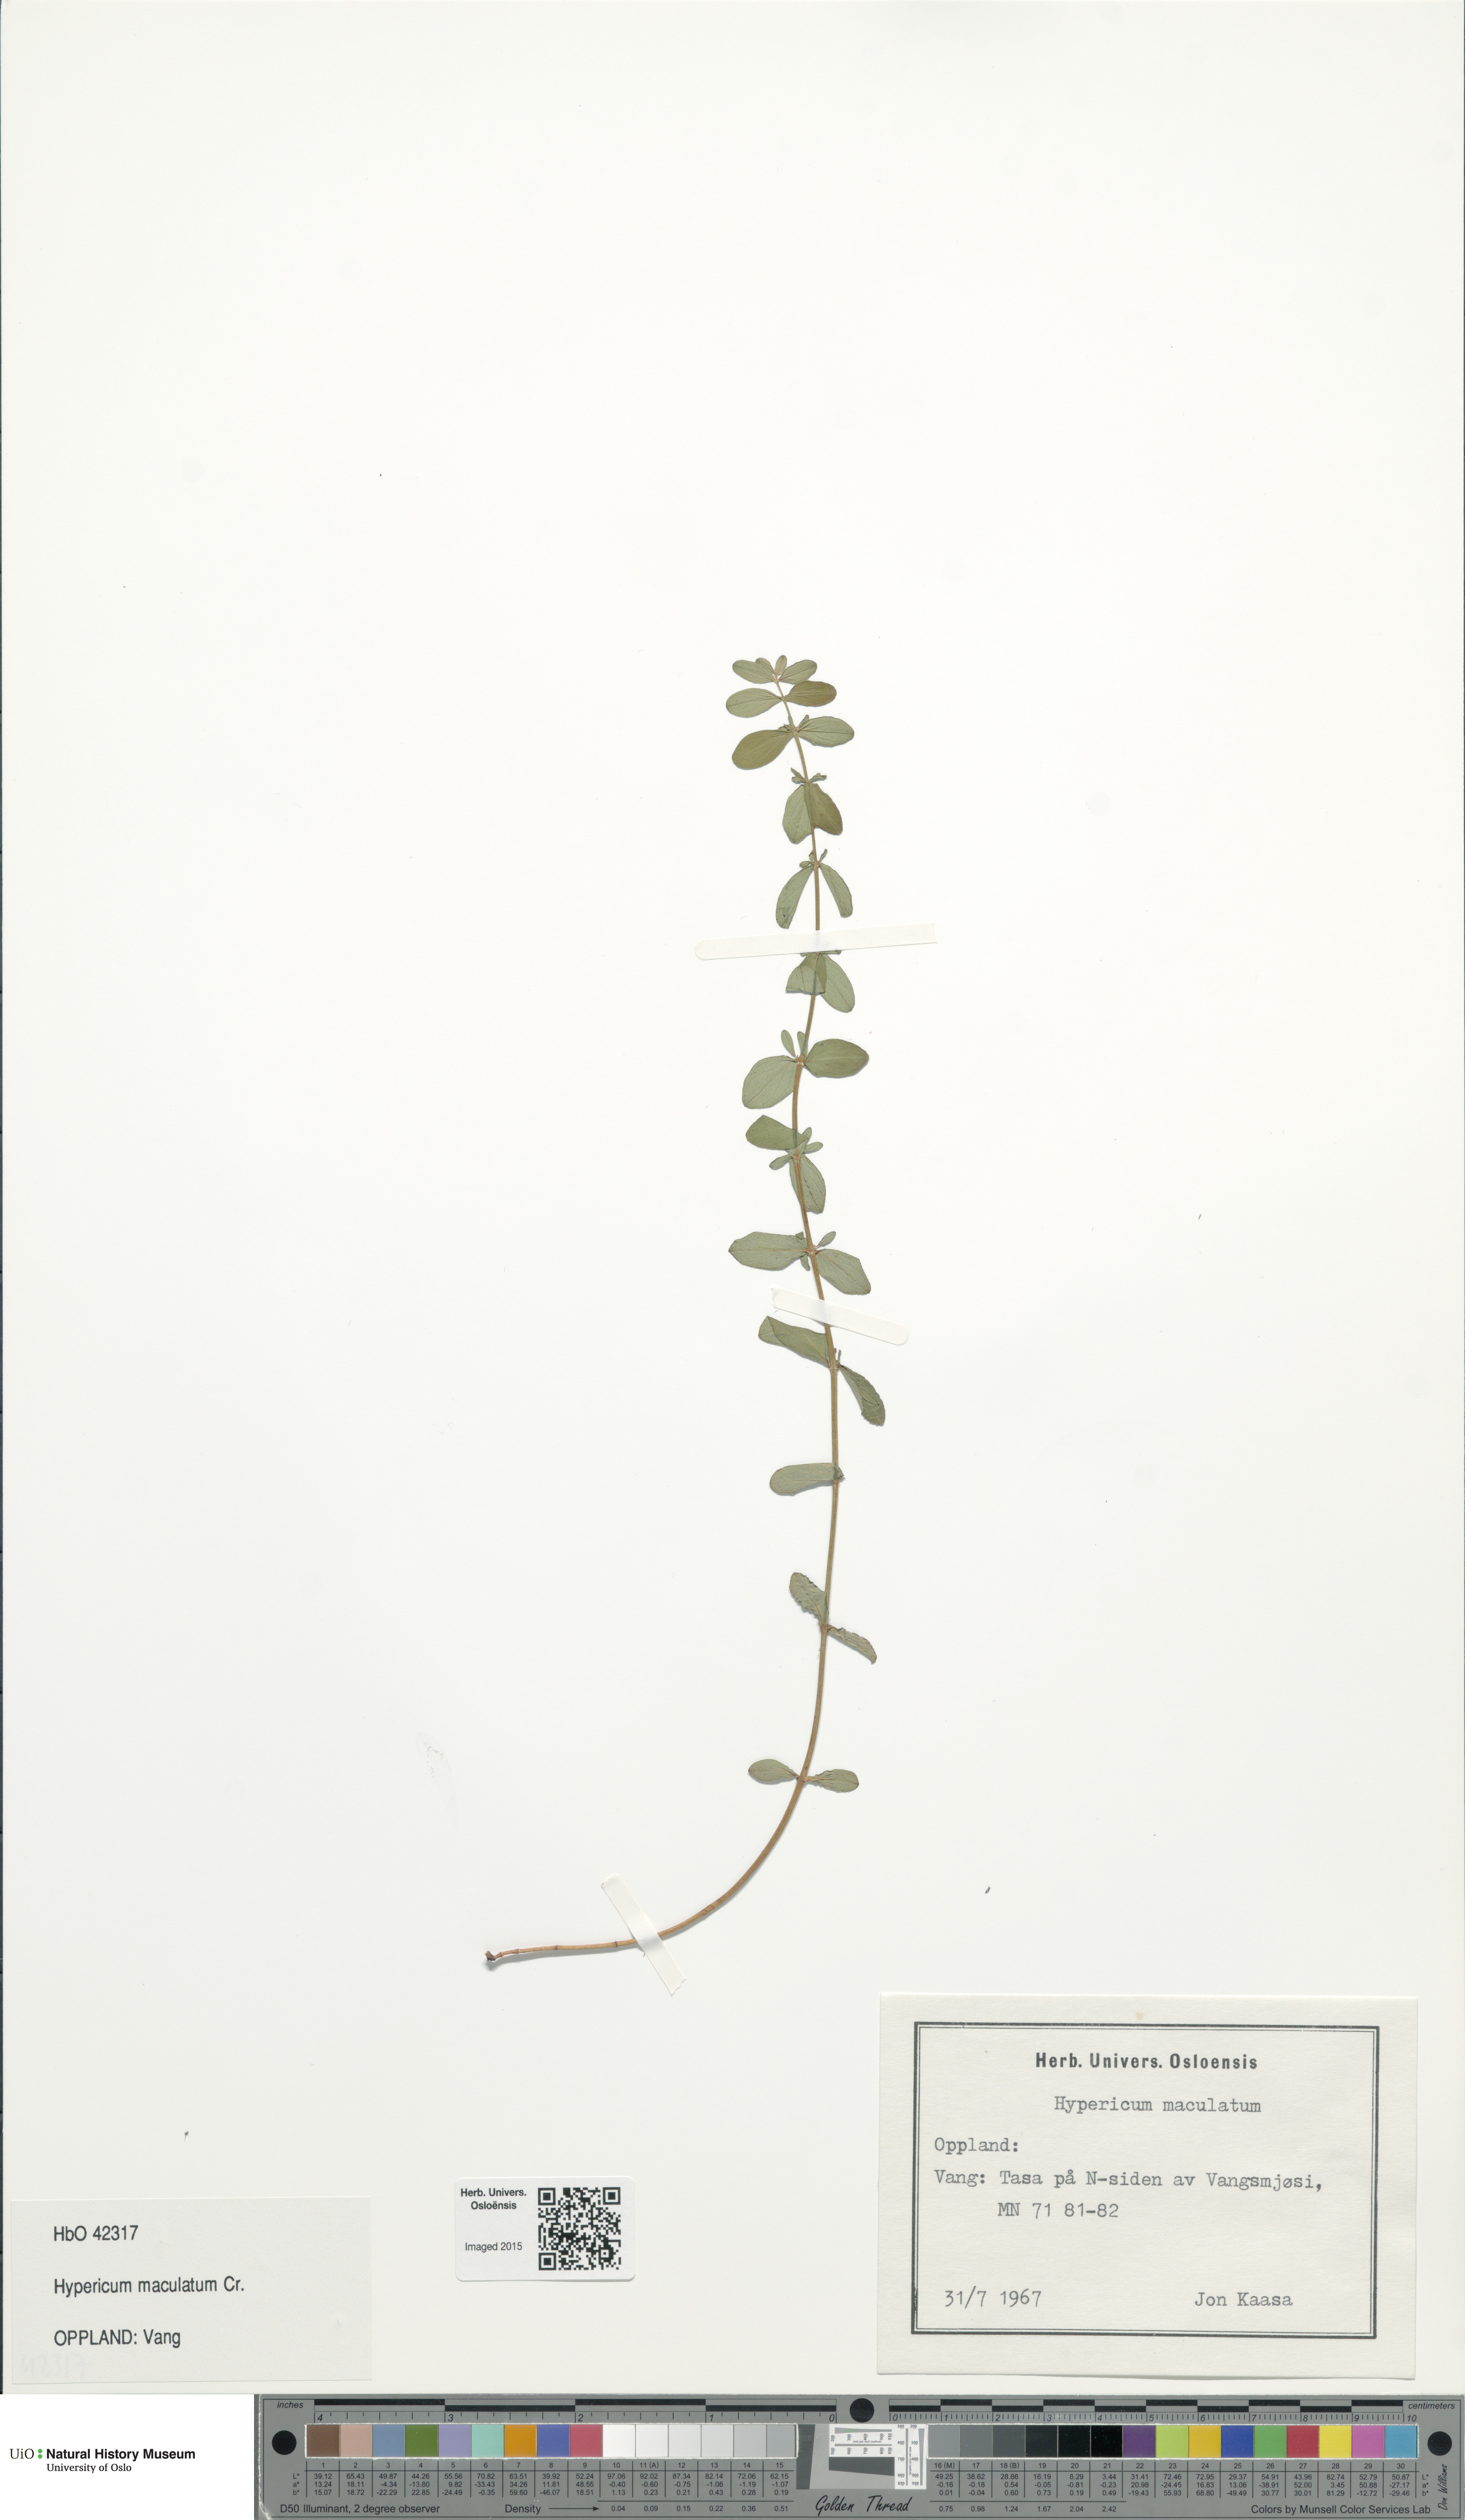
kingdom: Plantae
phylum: Tracheophyta
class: Magnoliopsida
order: Malpighiales
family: Hypericaceae
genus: Hypericum
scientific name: Hypericum maculatum
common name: Imperforate st. john's-wort
